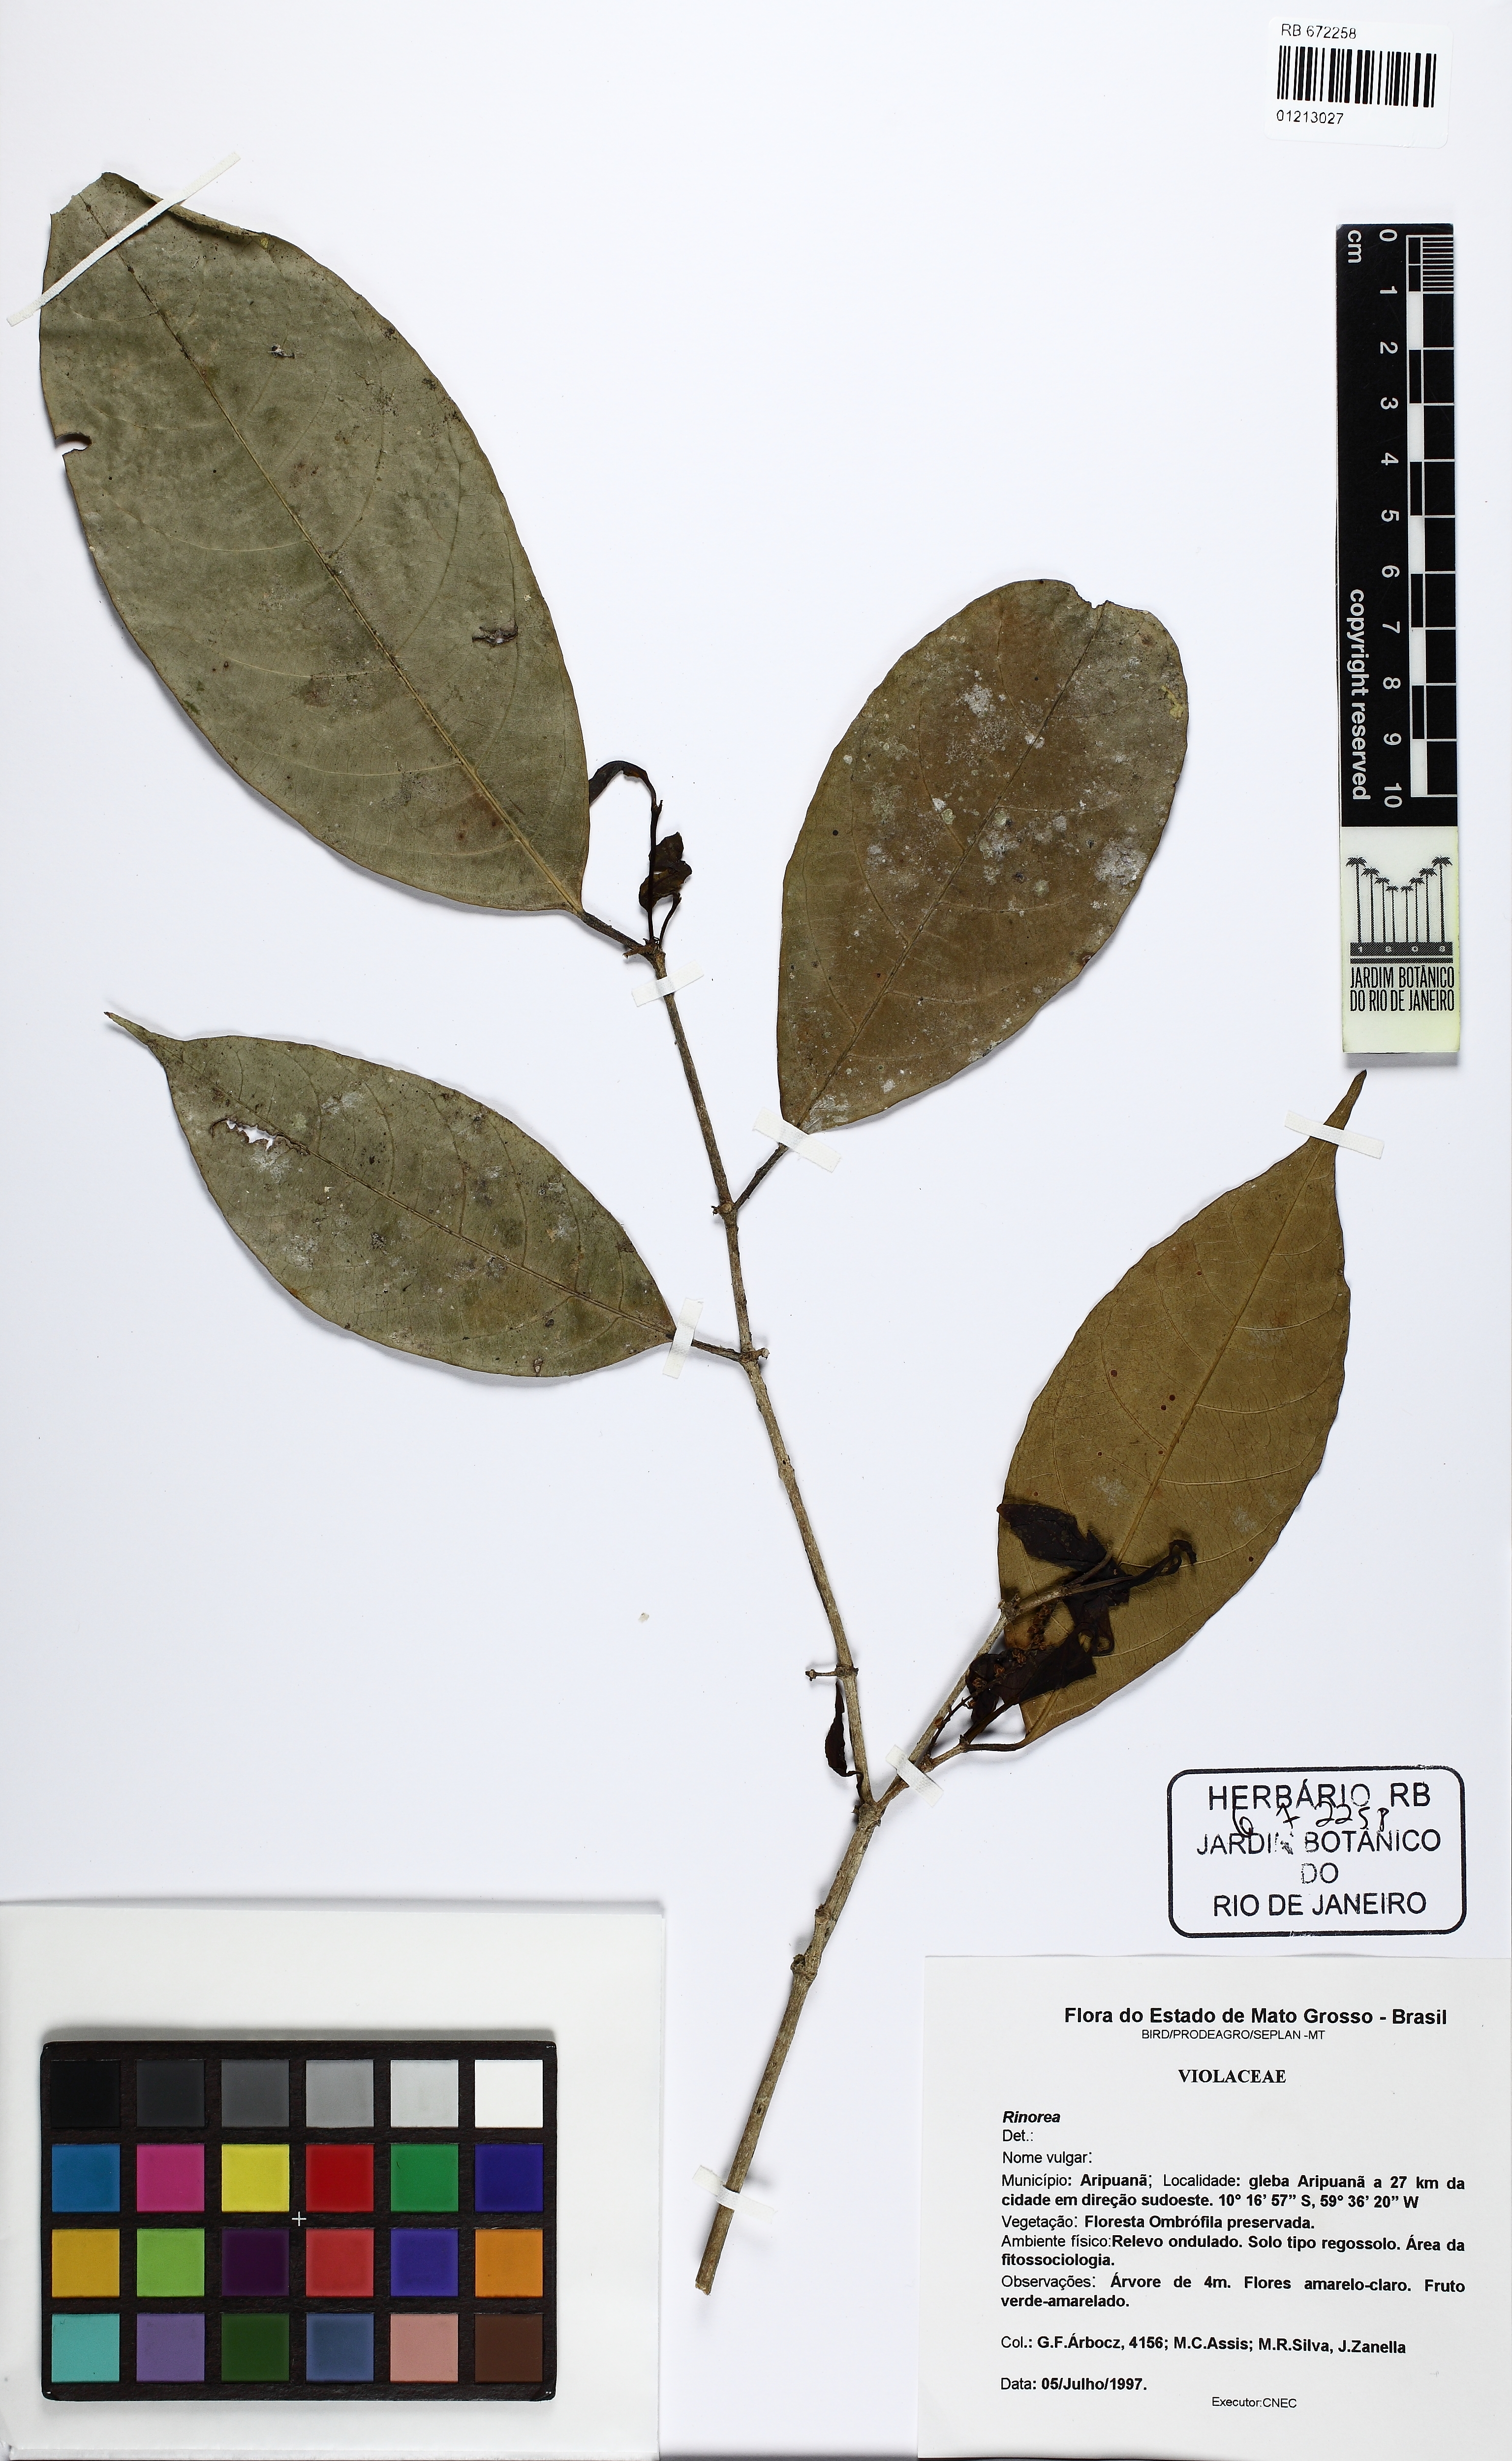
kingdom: Plantae
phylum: Tracheophyta
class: Magnoliopsida
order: Malpighiales
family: Violaceae
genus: Rinorea
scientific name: Rinorea
